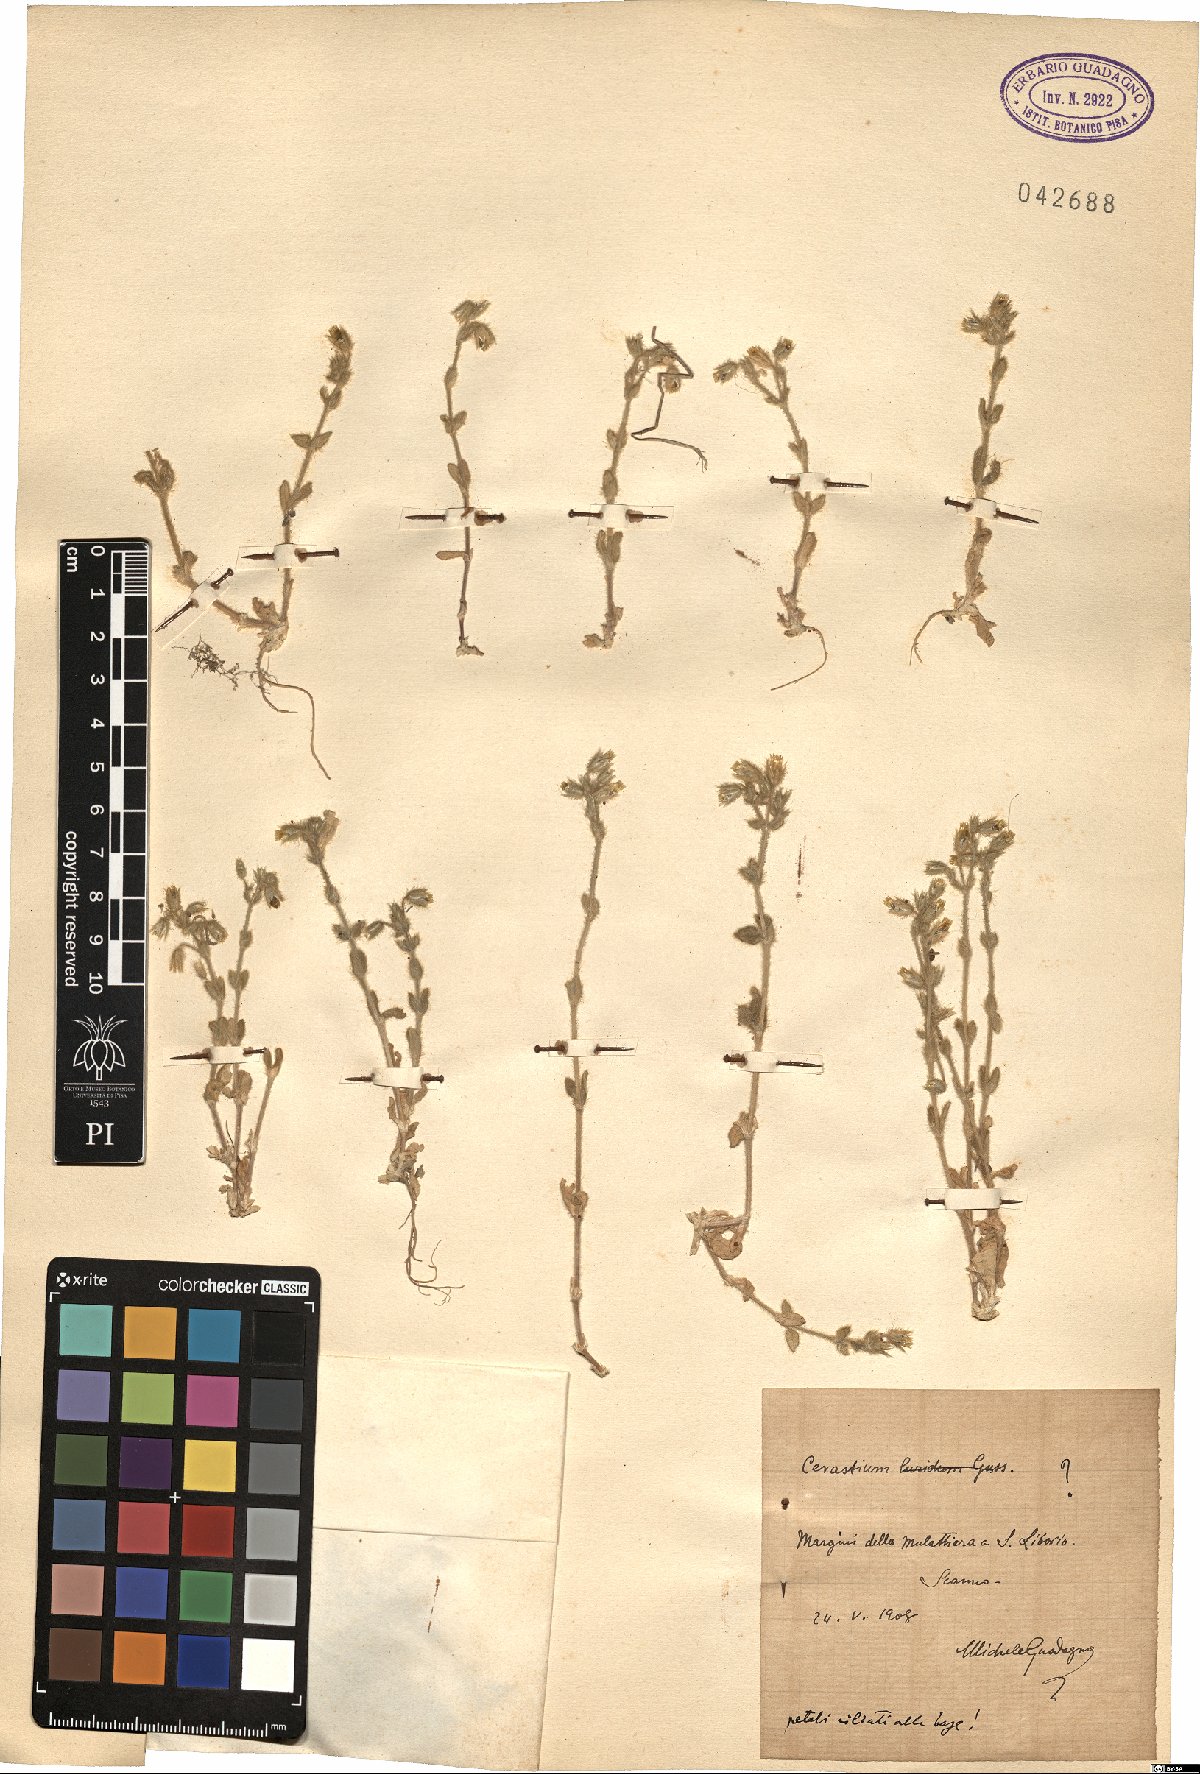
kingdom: Plantae
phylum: Tracheophyta
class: Magnoliopsida
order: Caryophyllales
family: Caryophyllaceae
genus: Cerastium
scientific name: Cerastium brachypetalum
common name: Grey mouse-ear
